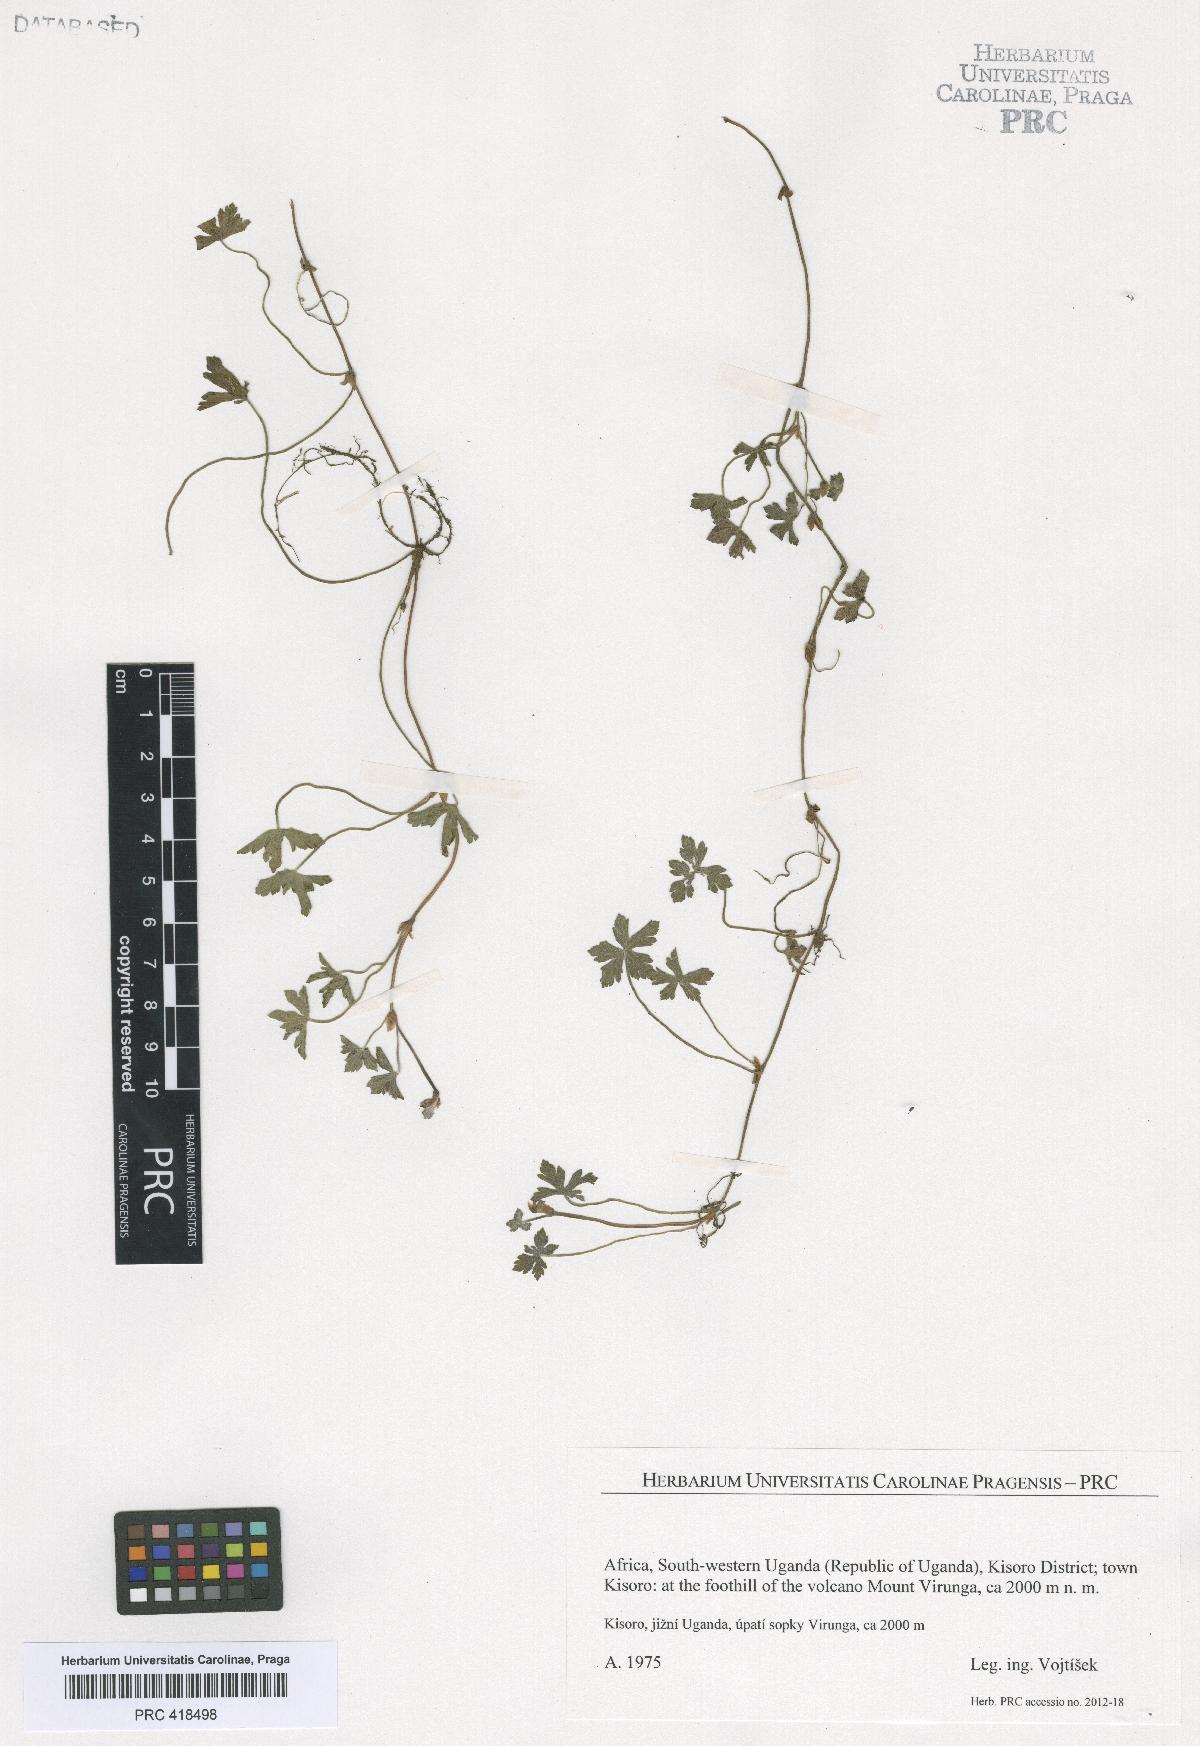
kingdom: Plantae
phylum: Tracheophyta
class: Magnoliopsida
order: Geraniales
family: Geraniaceae
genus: Geranium
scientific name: Geranium
